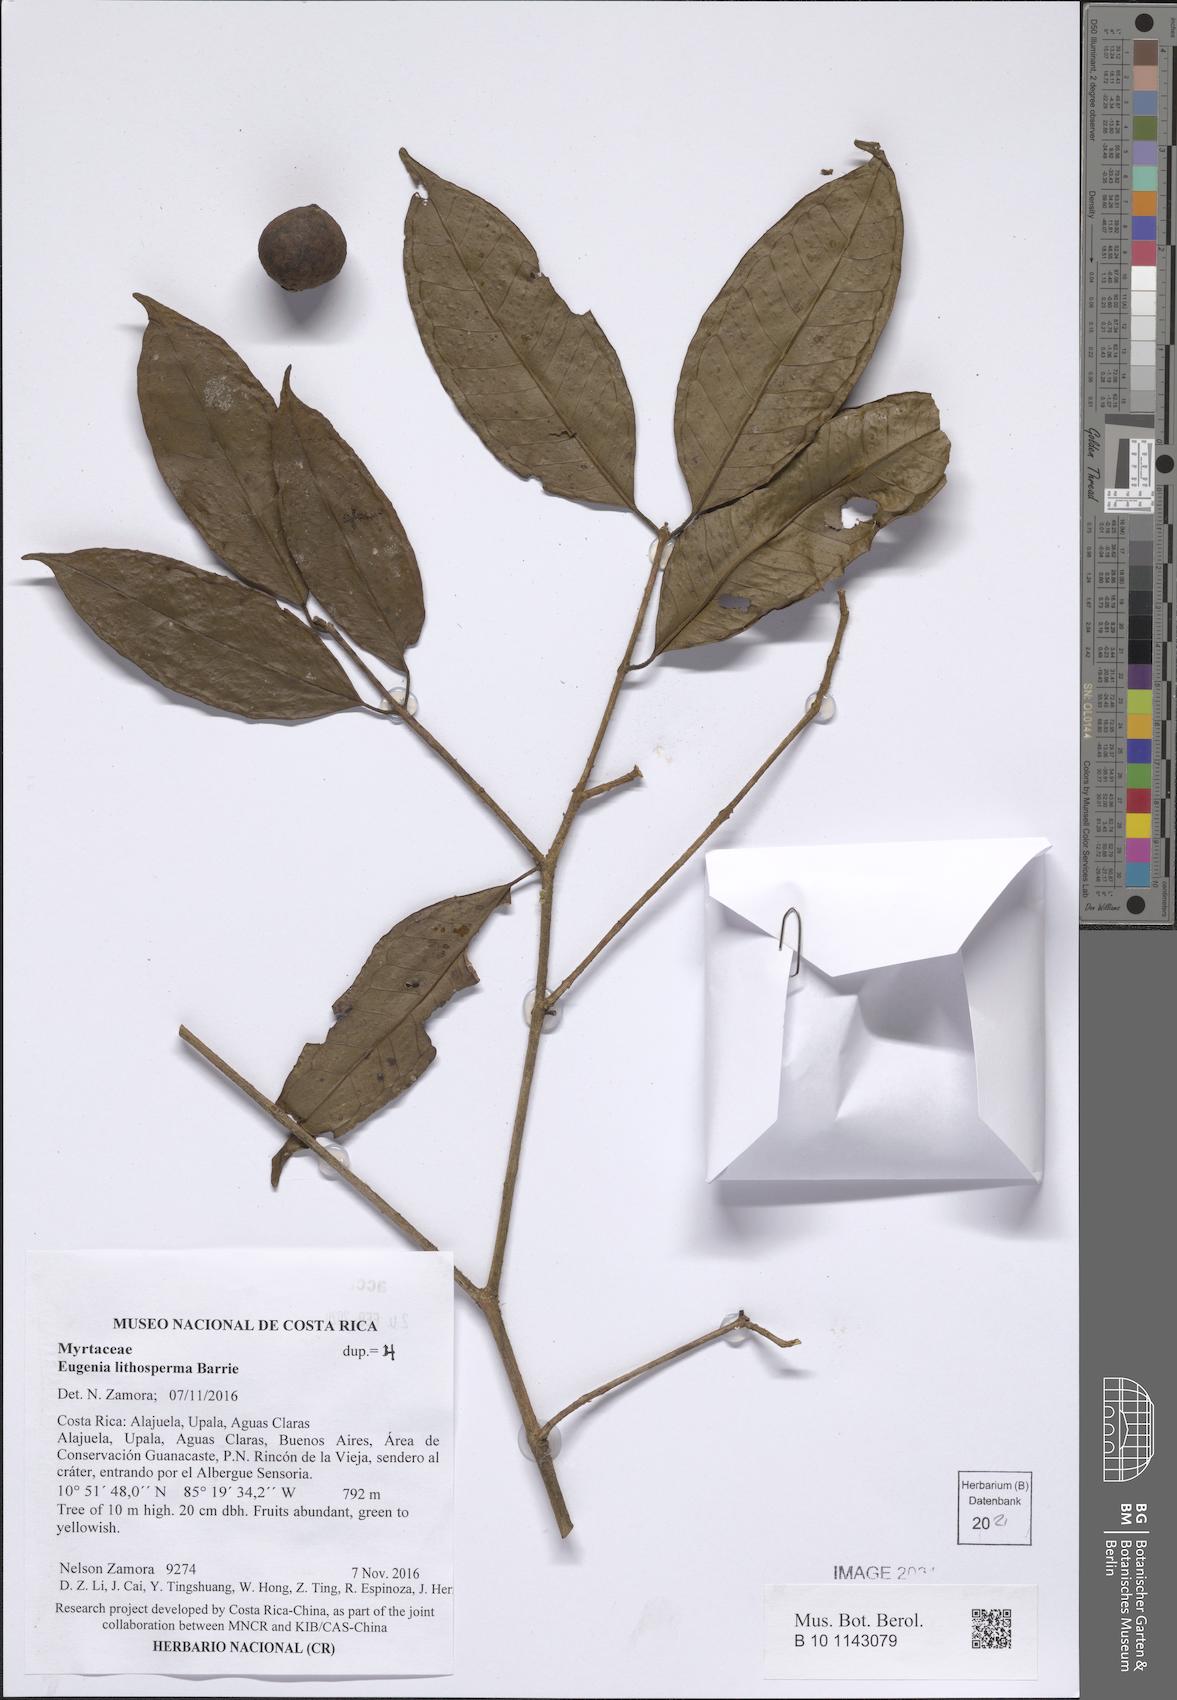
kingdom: Plantae
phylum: Tracheophyta
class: Magnoliopsida
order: Myrtales
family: Myrtaceae
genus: Eugenia
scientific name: Eugenia lithosperma
